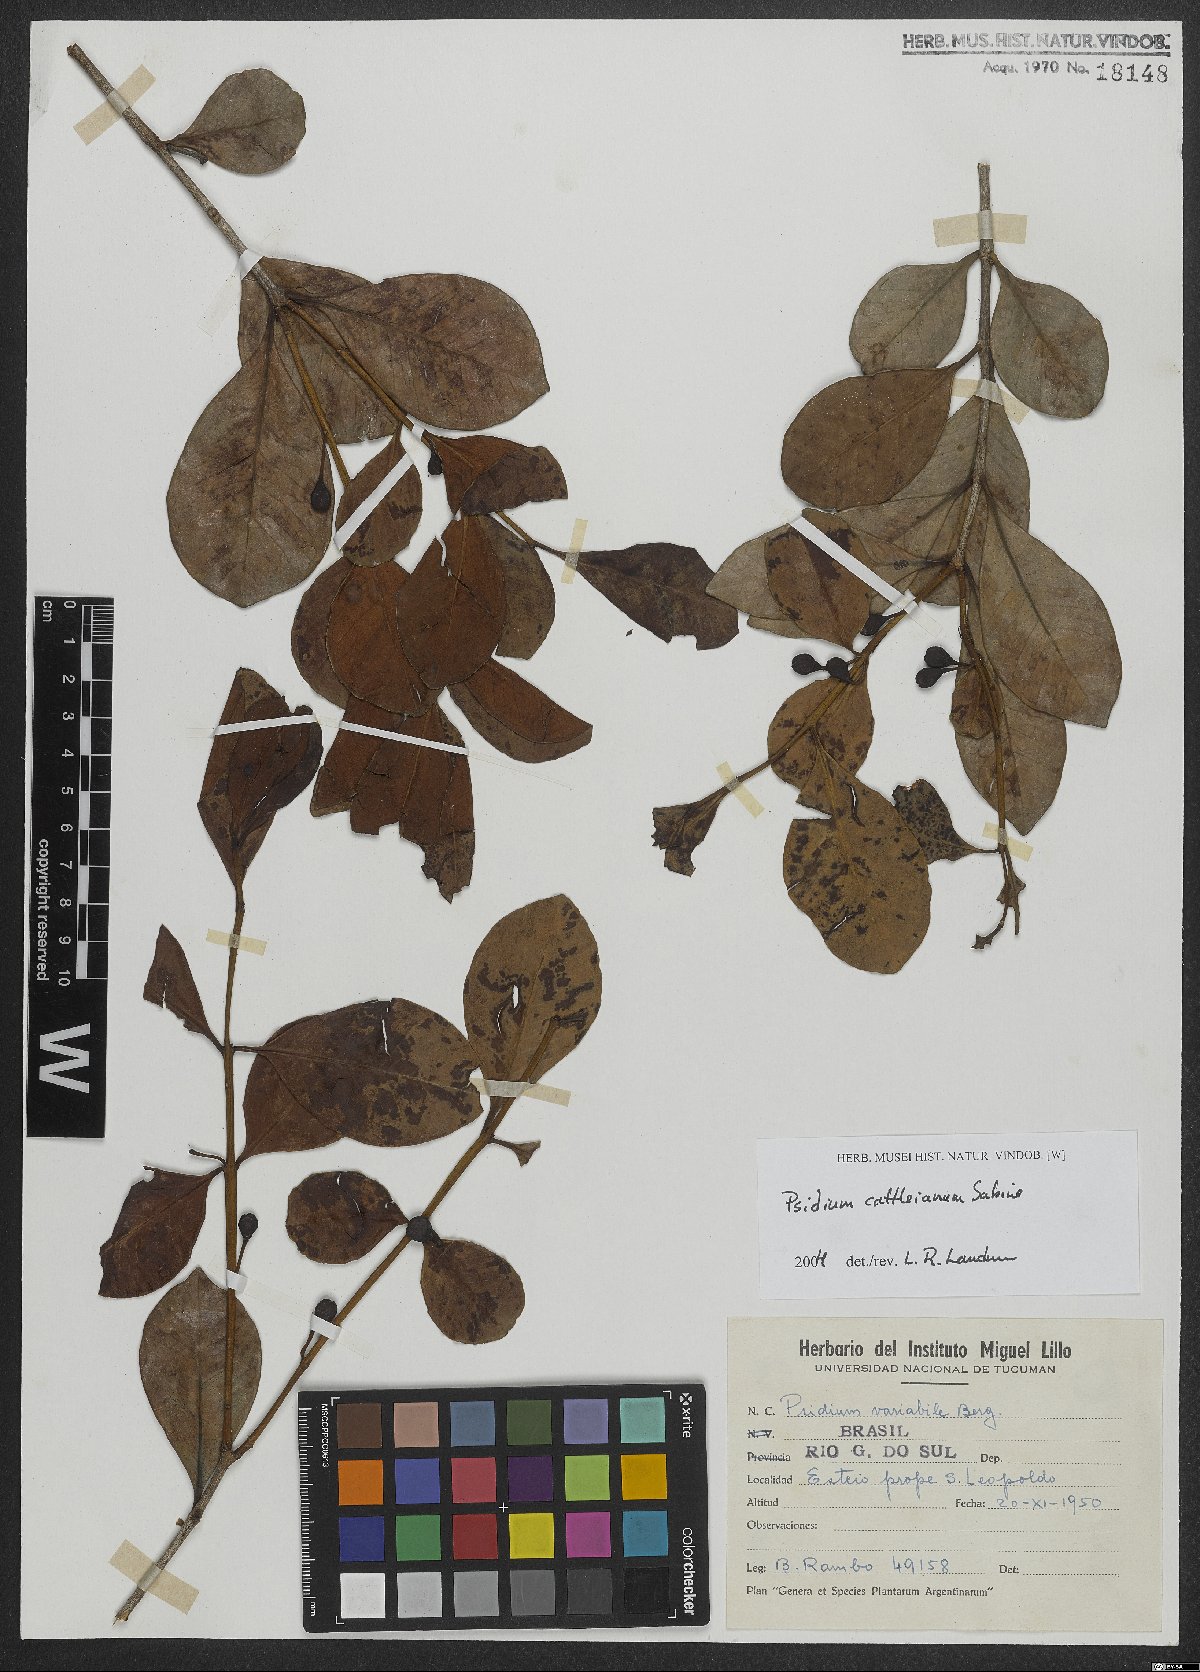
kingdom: Plantae
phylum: Tracheophyta
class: Magnoliopsida
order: Myrtales
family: Myrtaceae
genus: Psidium
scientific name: Psidium cattleianum
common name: Strawberry guava
